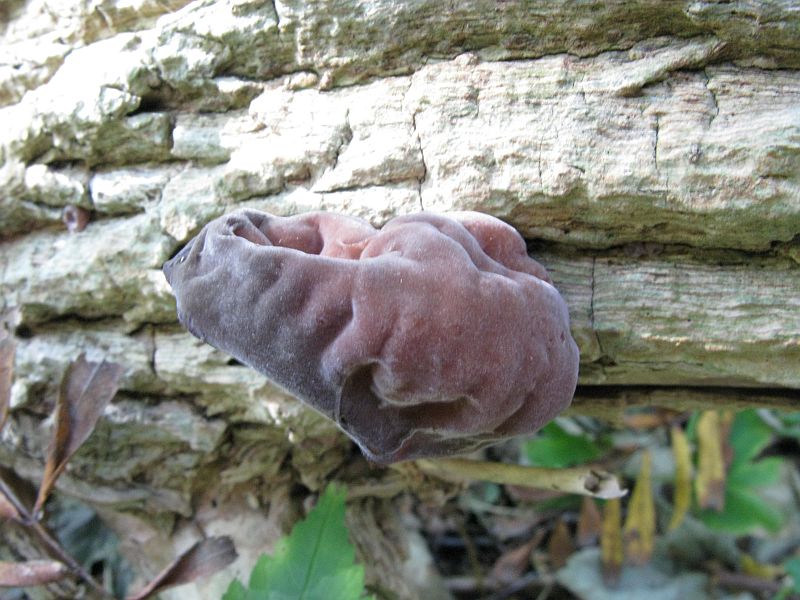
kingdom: Fungi
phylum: Basidiomycota
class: Agaricomycetes
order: Auriculariales
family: Auriculariaceae
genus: Auricularia
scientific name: Auricularia auricula-judae
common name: almindelig judasøre
